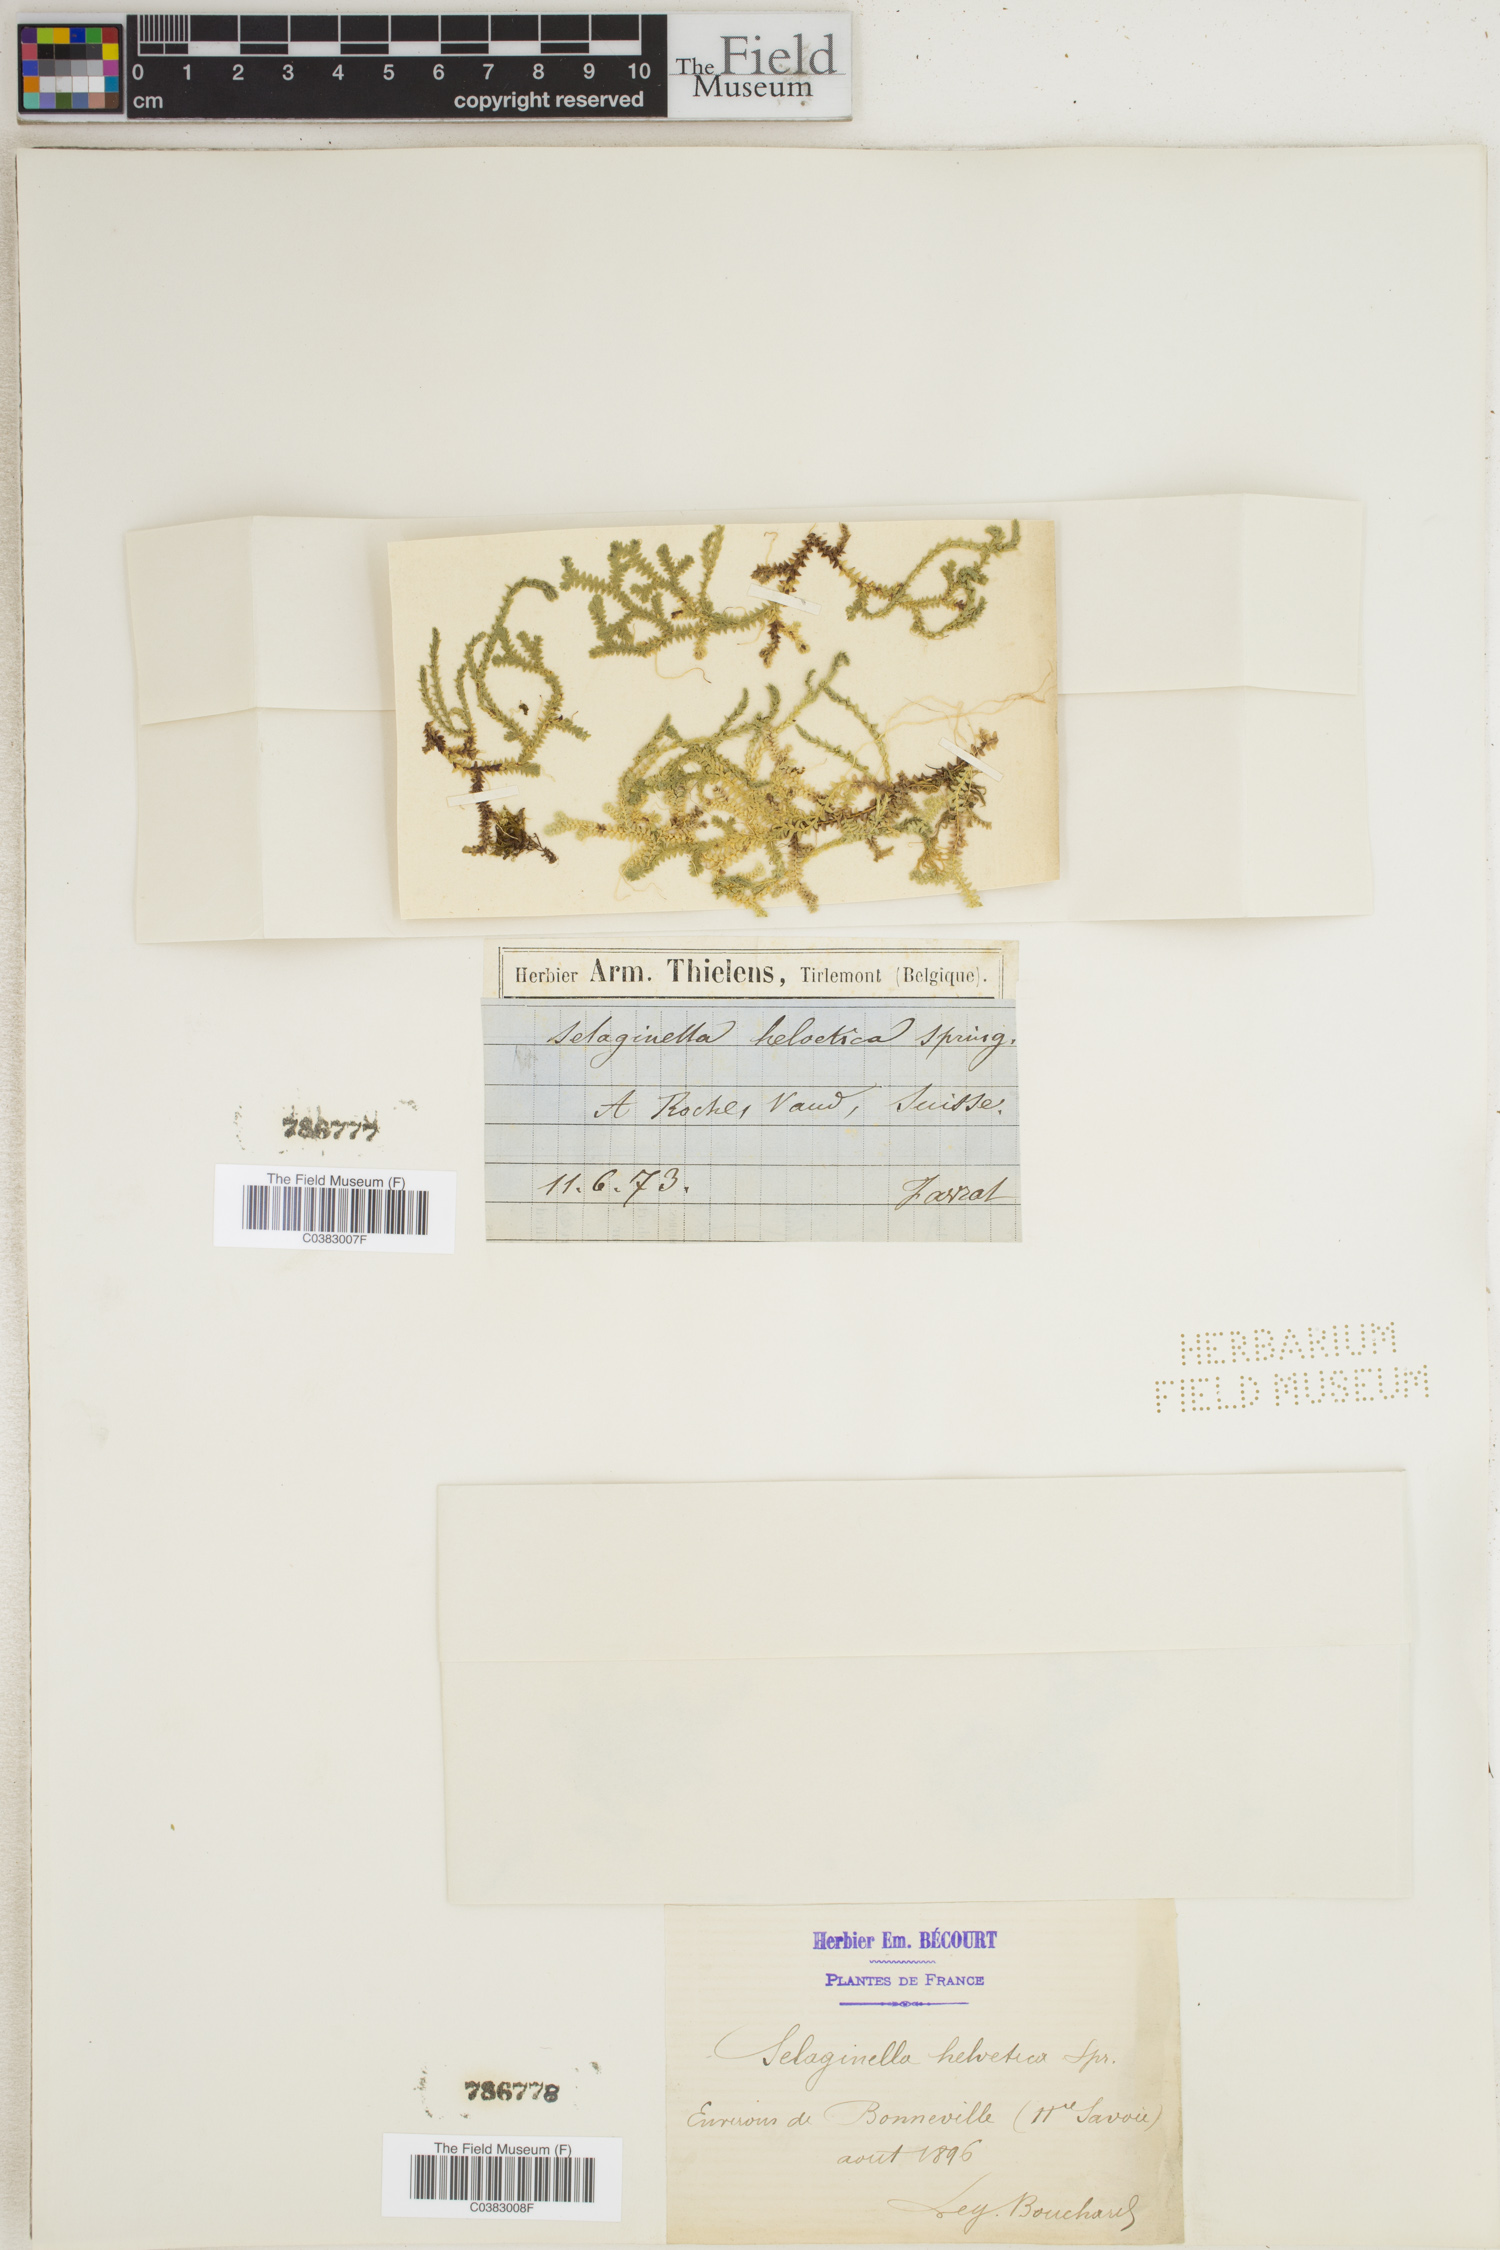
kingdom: Plantae
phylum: Tracheophyta
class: Lycopodiopsida
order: Selaginellales
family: Selaginellaceae
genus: Selaginella
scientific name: Selaginella helvetica
